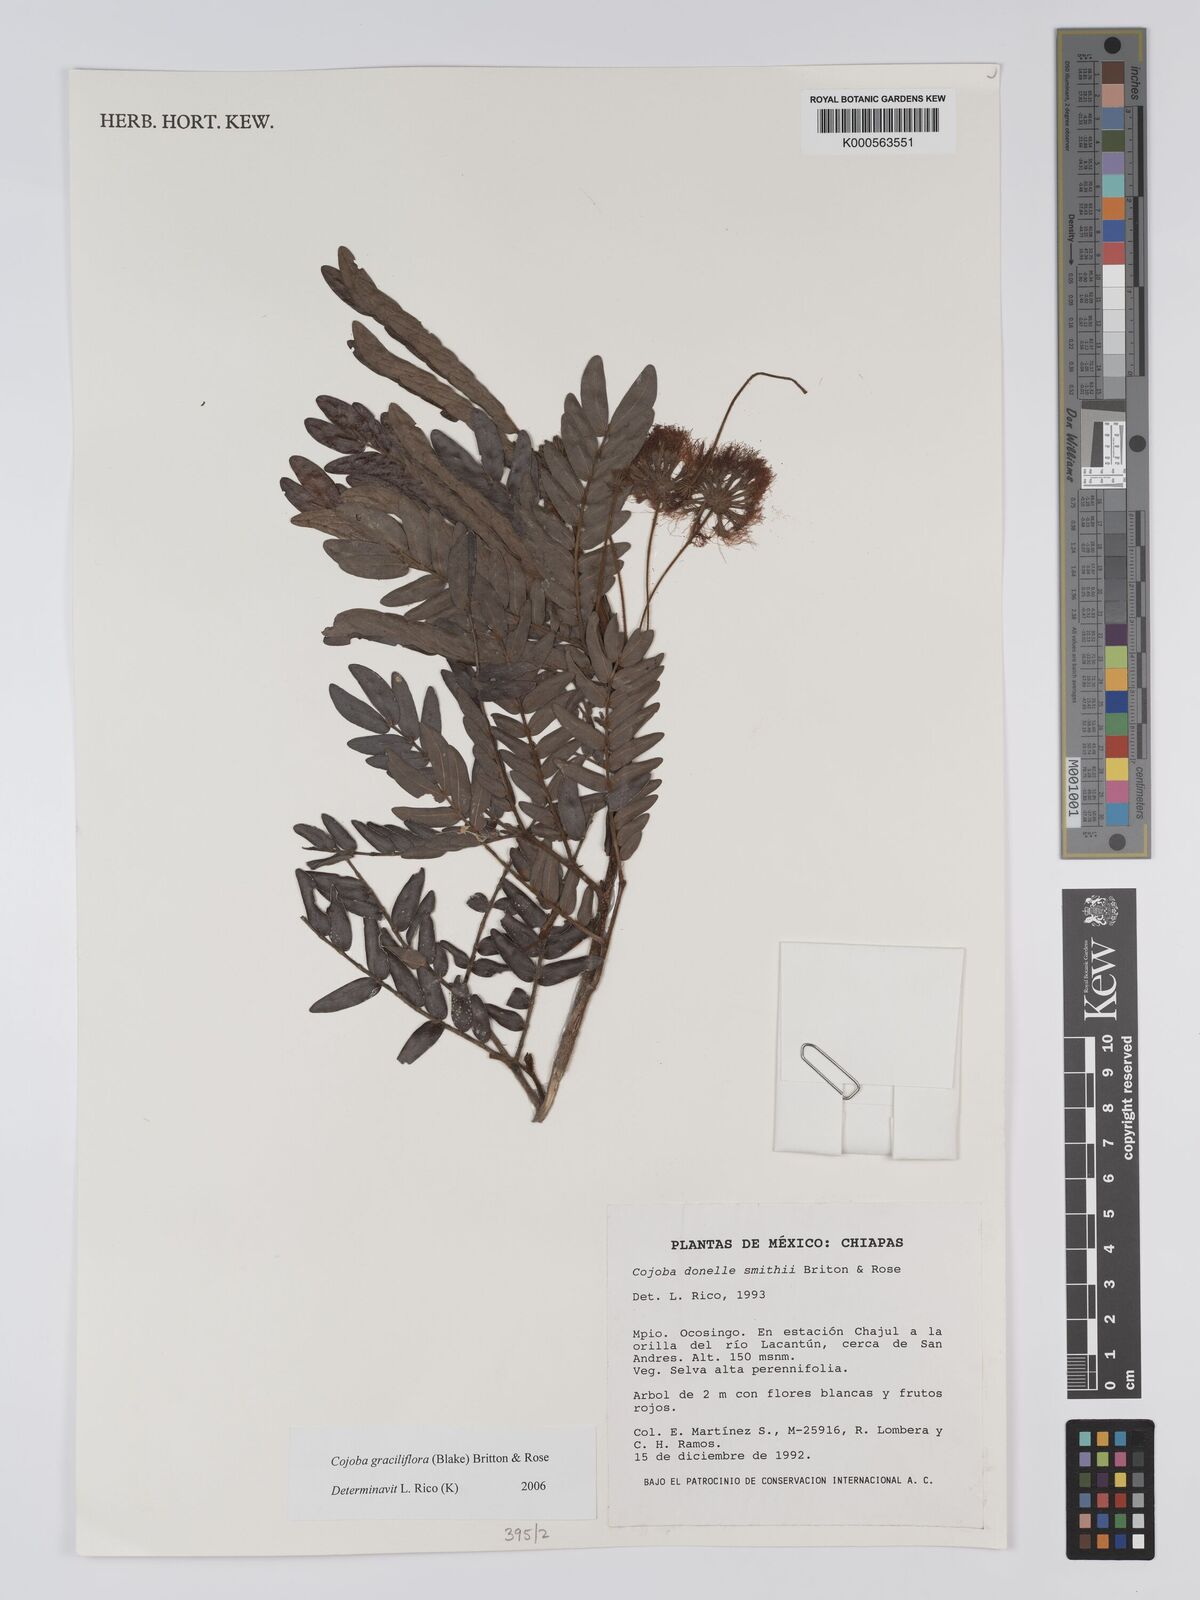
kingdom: Plantae
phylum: Tracheophyta
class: Magnoliopsida
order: Fabales
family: Fabaceae
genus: Cojoba
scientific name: Cojoba graciliflora
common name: Guadeloupe blackbead
